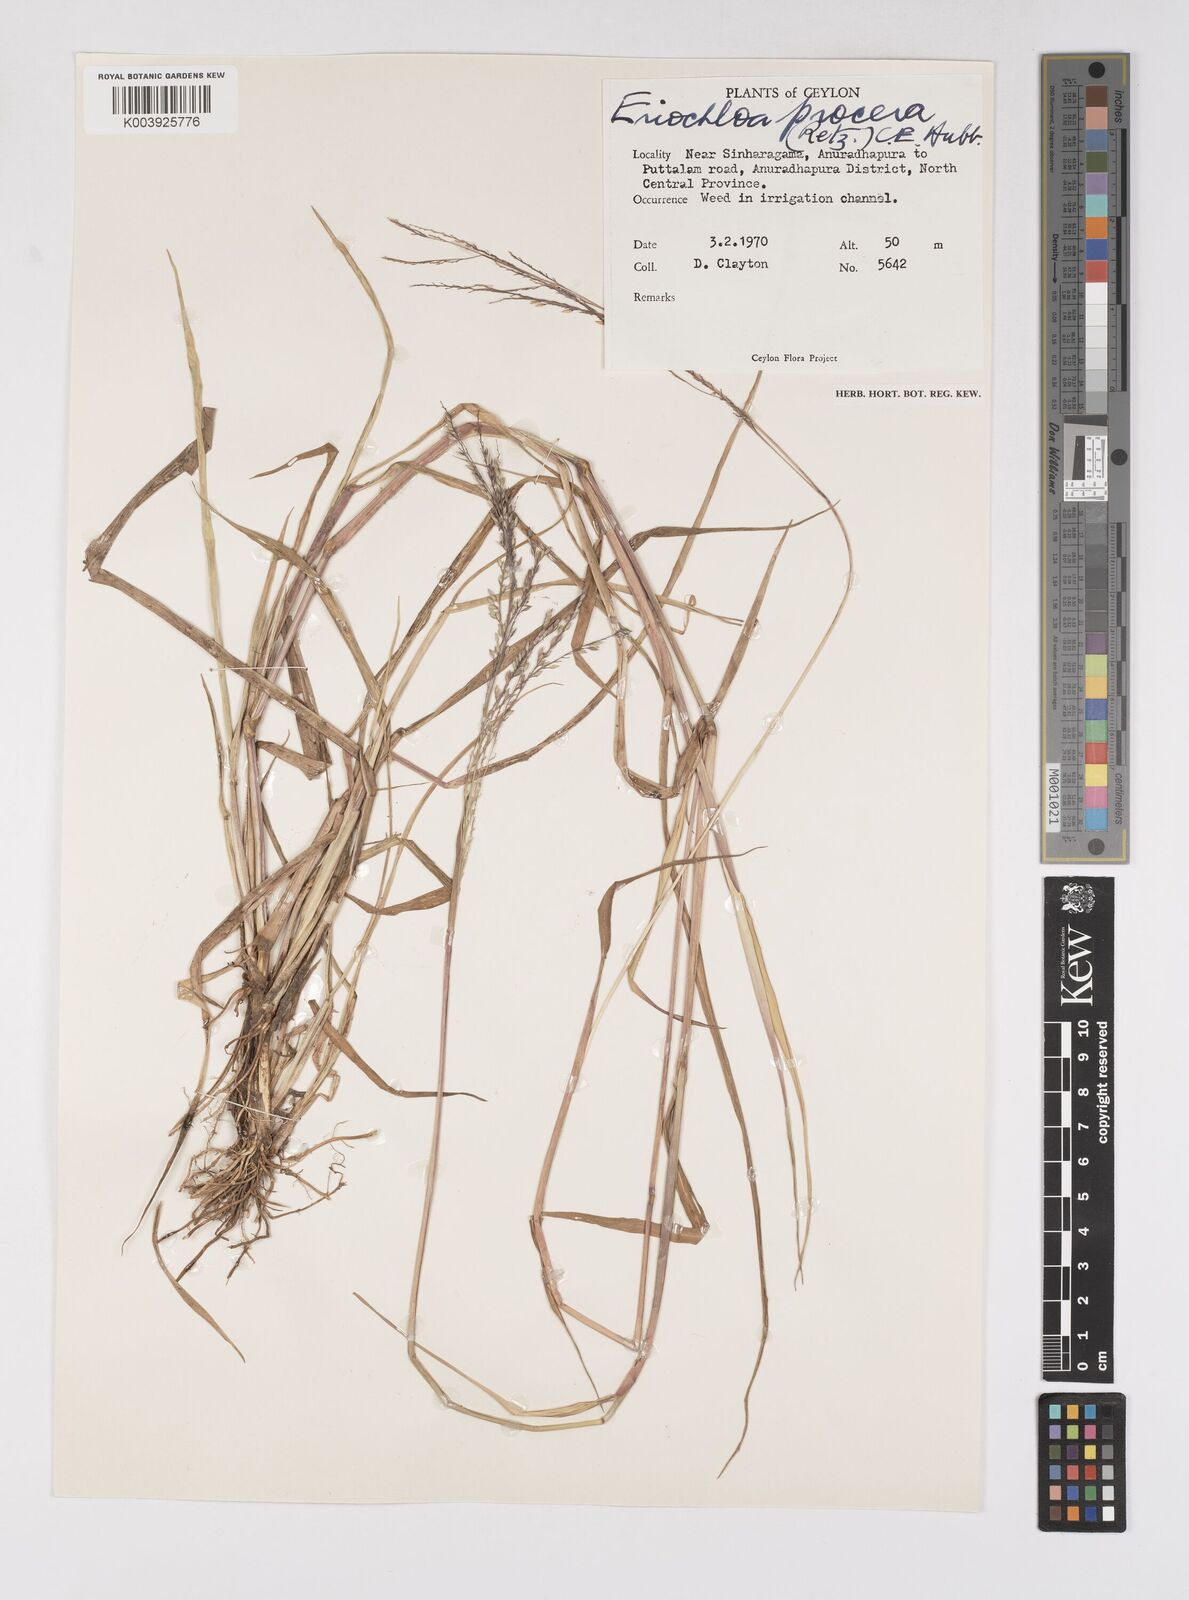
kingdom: Plantae
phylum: Tracheophyta
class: Liliopsida
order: Poales
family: Poaceae
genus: Eriochloa
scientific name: Eriochloa procera
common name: Spring grass
